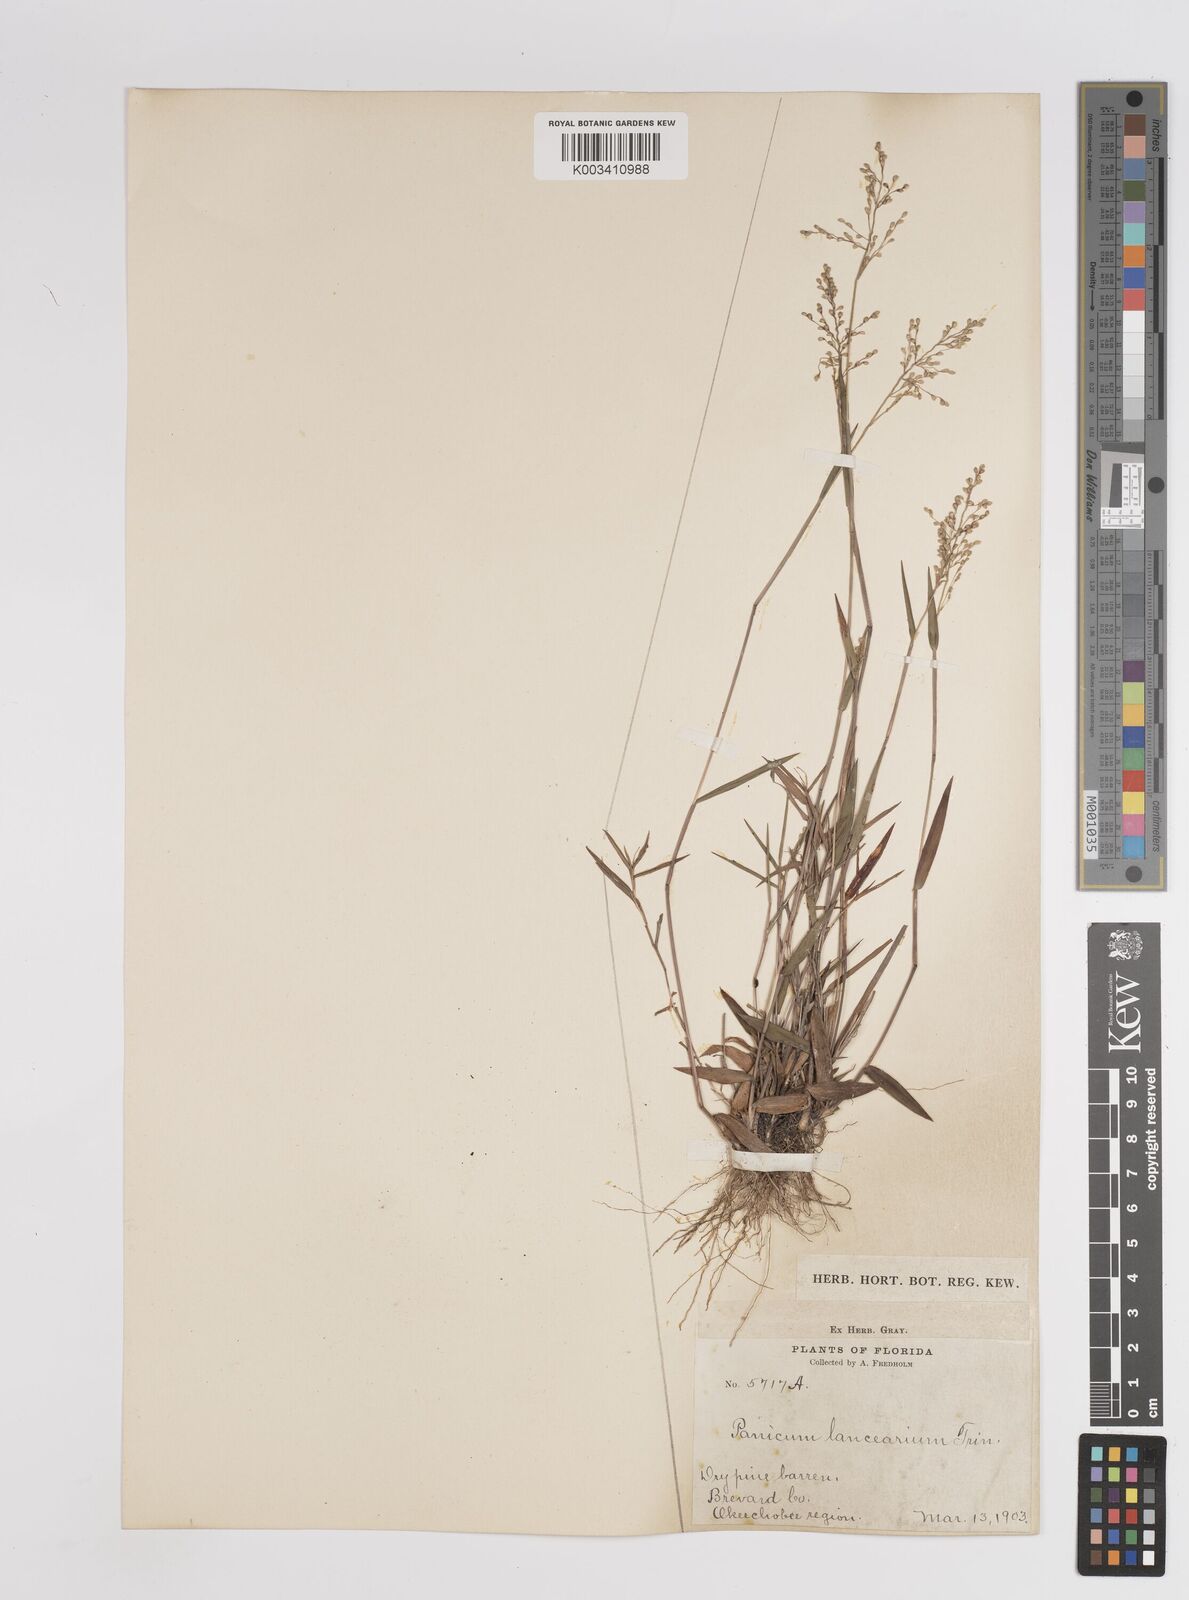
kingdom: Plantae
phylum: Tracheophyta
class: Liliopsida
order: Poales
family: Poaceae
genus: Dichanthelium
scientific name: Dichanthelium portoricense
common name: American panicgrass
